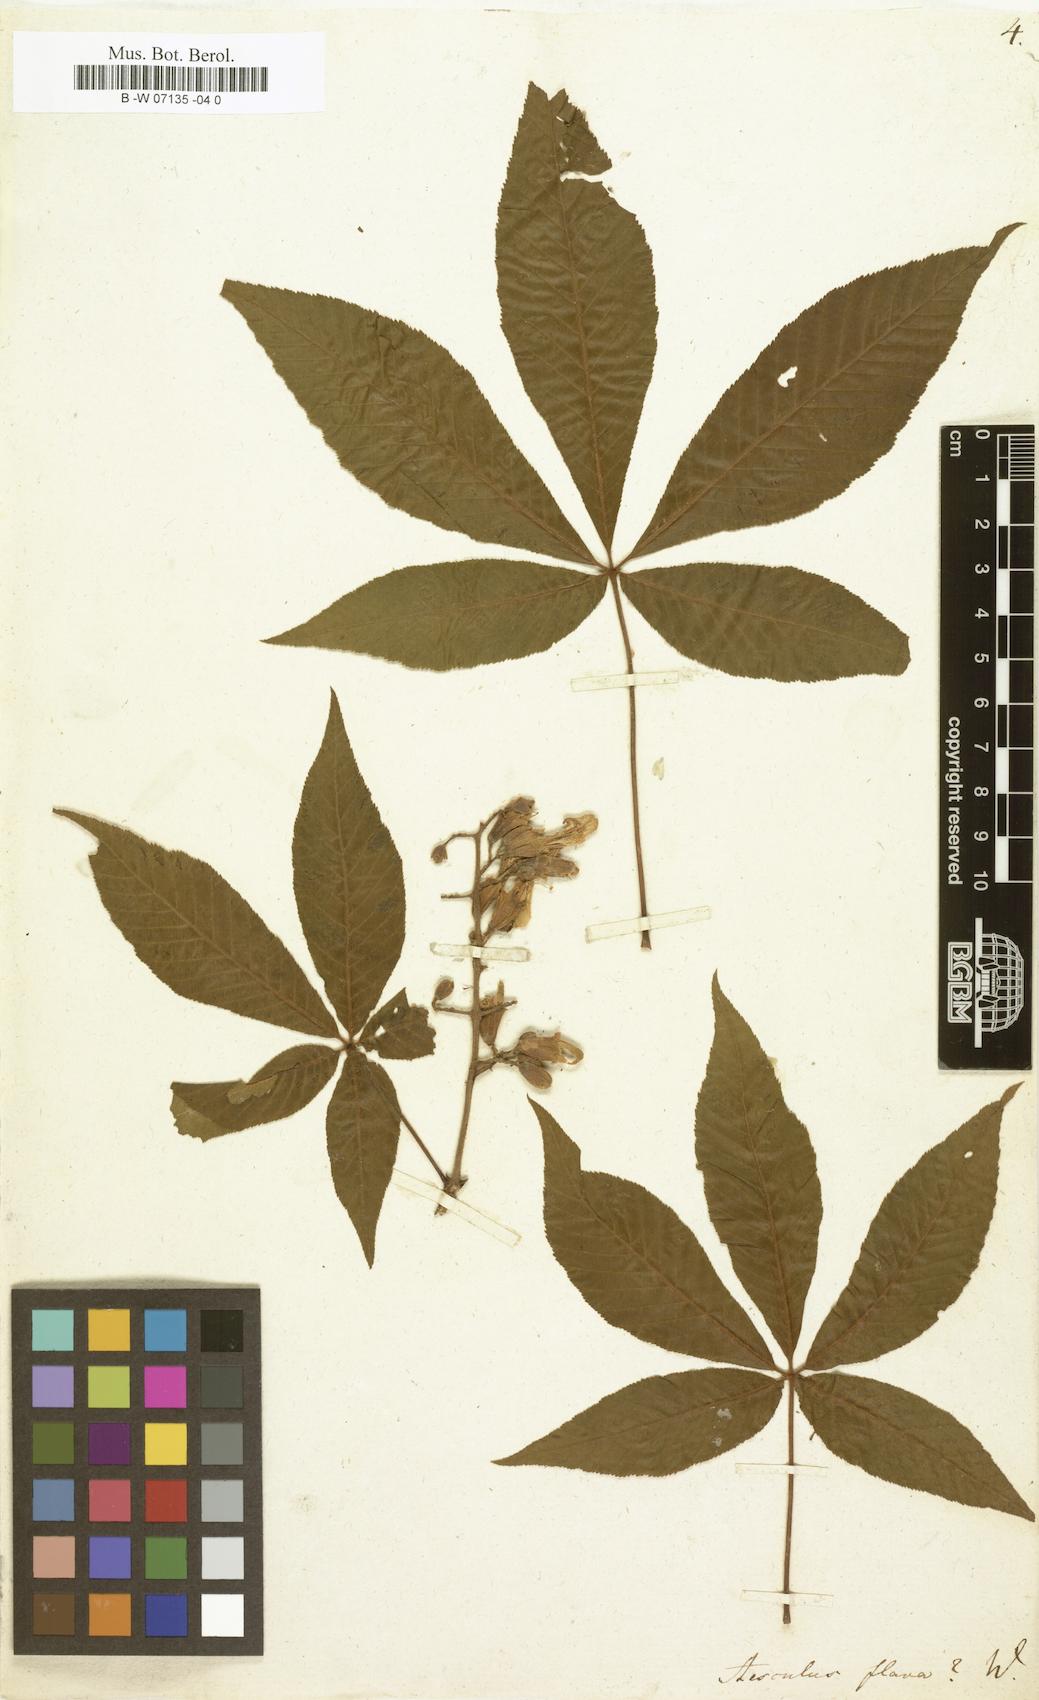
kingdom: Plantae
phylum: Tracheophyta
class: Magnoliopsida
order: Sapindales
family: Sapindaceae
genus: Aesculus
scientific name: Aesculus flava
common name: Yellow buckeye
